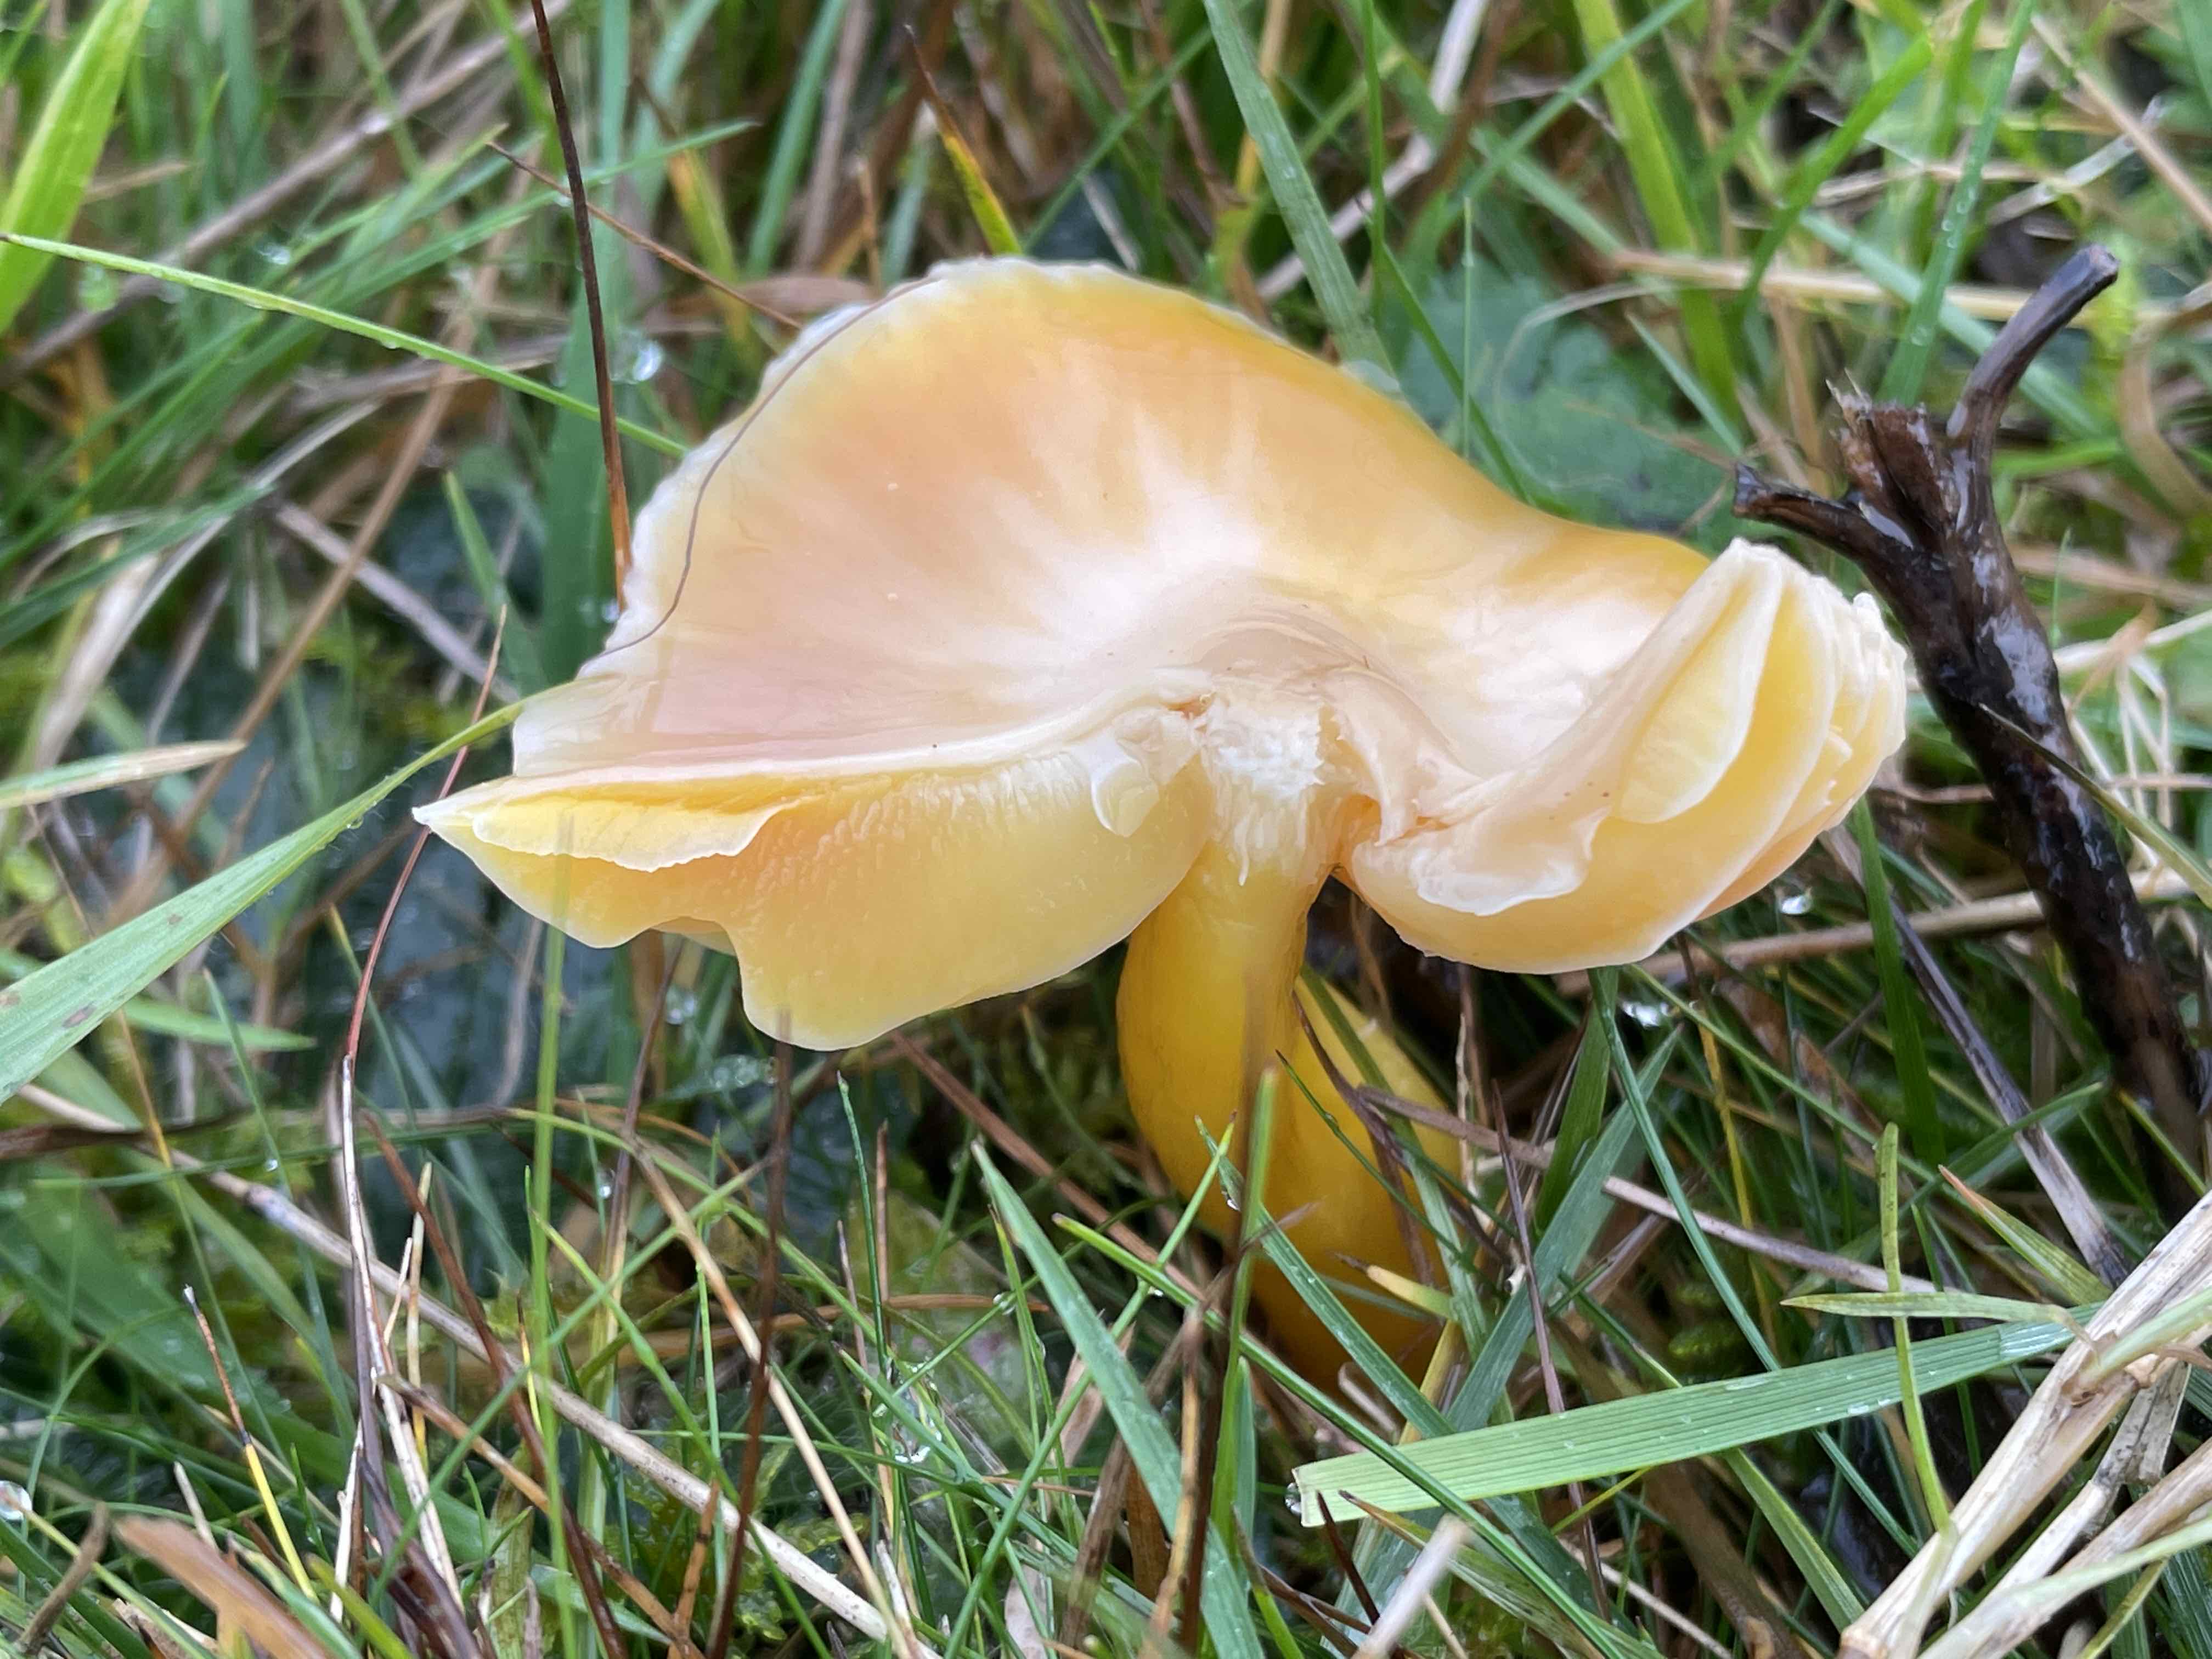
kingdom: Fungi
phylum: Basidiomycota
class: Agaricomycetes
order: Agaricales
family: Hygrophoraceae
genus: Hygrocybe
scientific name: Hygrocybe chlorophana
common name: gul vokshat
